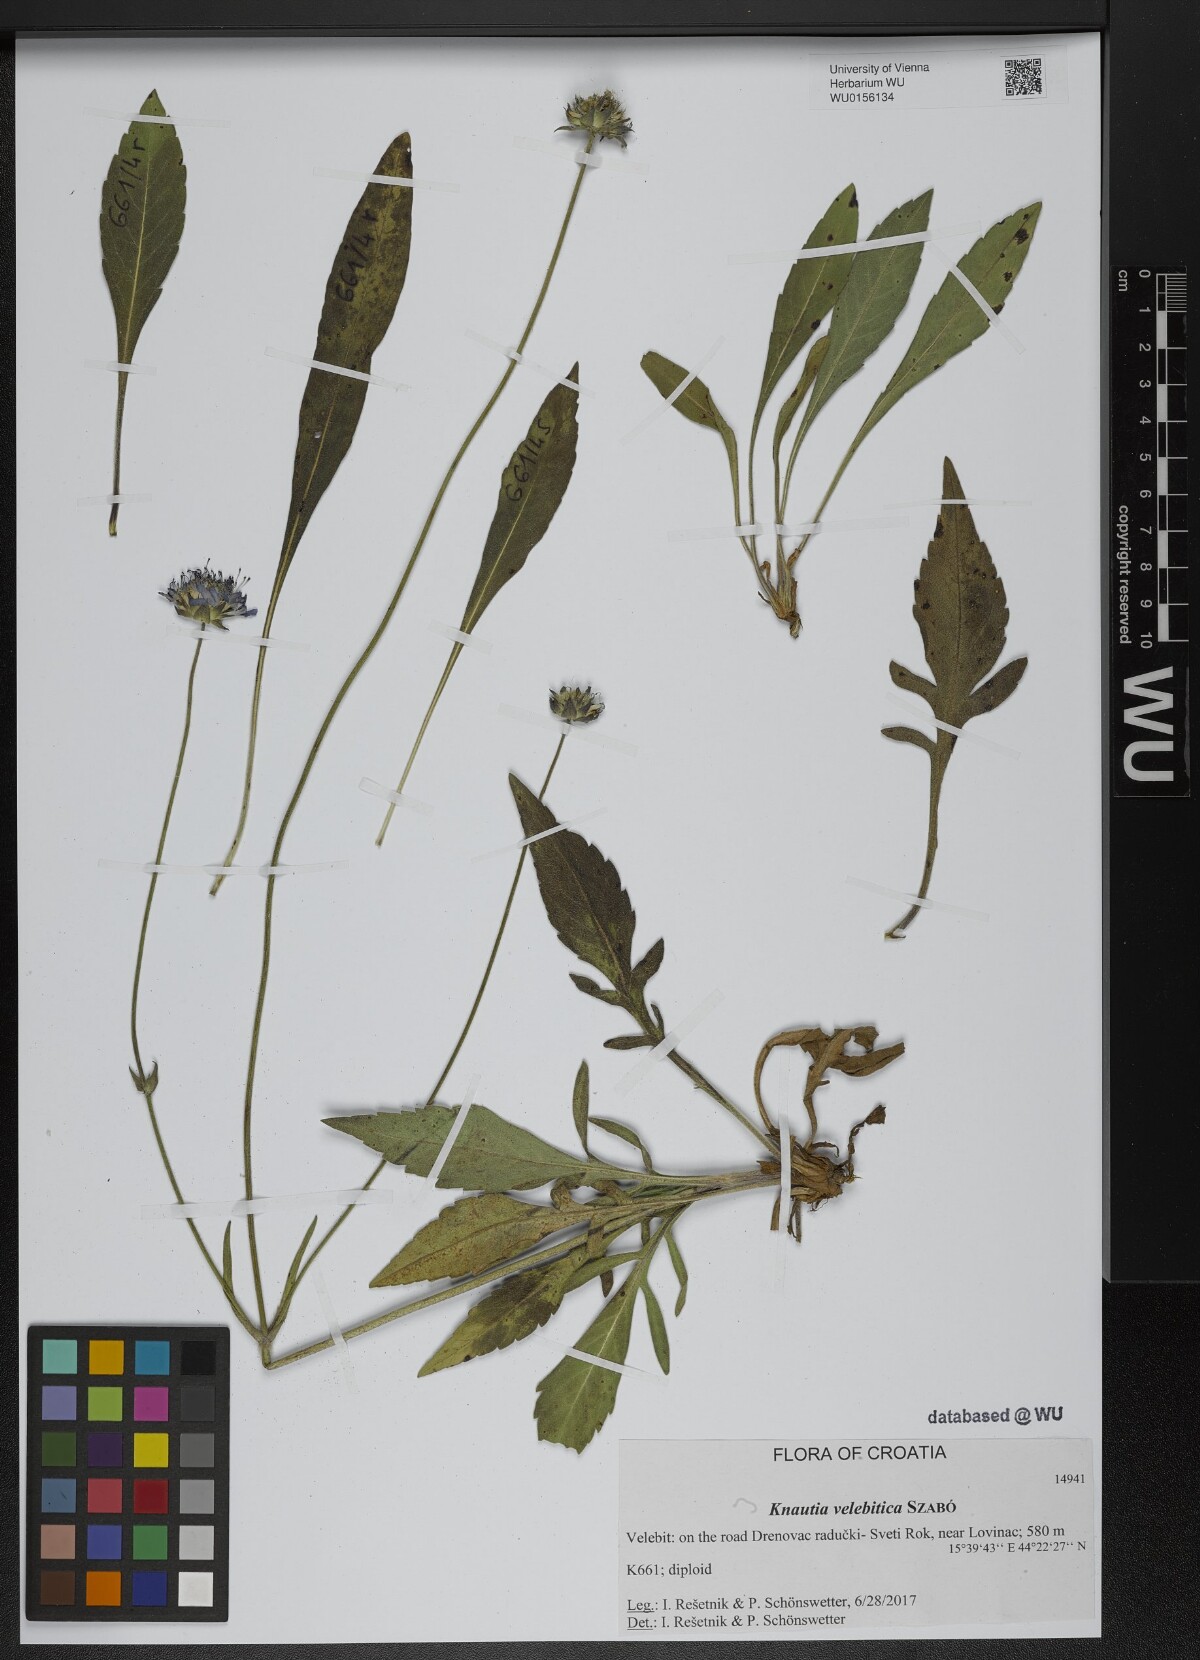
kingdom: Plantae
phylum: Tracheophyta
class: Magnoliopsida
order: Dipsacales
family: Caprifoliaceae
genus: Knautia
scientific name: Knautia velebitica
